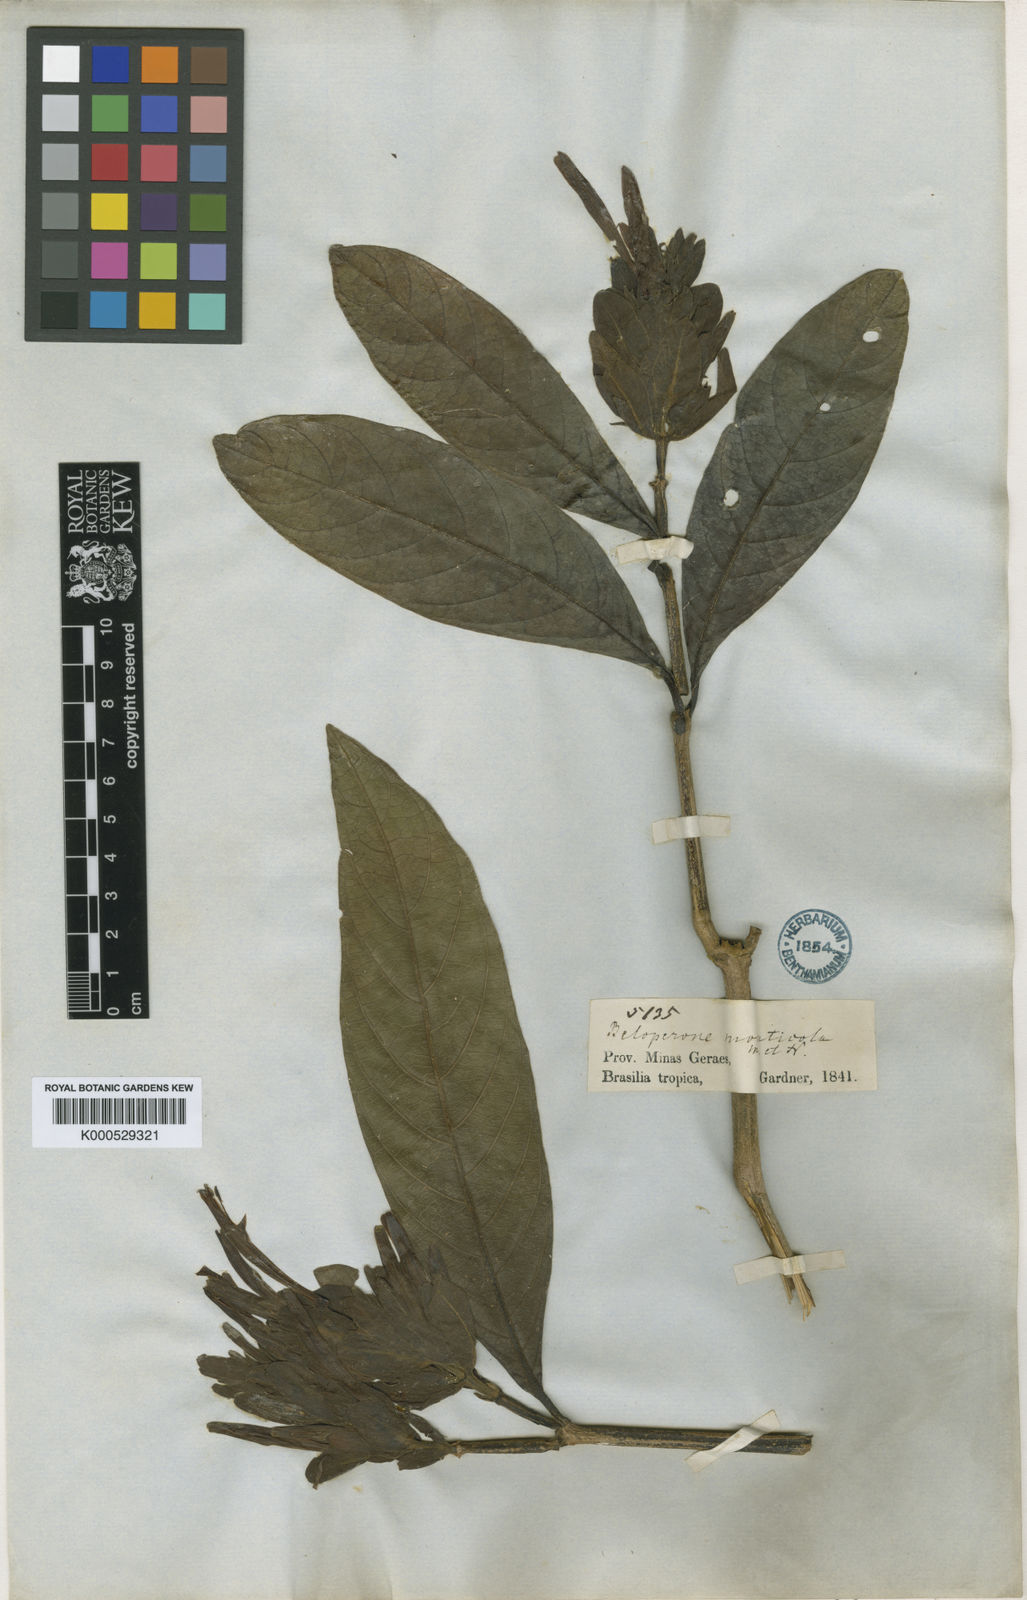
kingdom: Plantae
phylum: Tracheophyta
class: Magnoliopsida
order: Lamiales
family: Acanthaceae
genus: Justicia
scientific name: Justicia monticola
